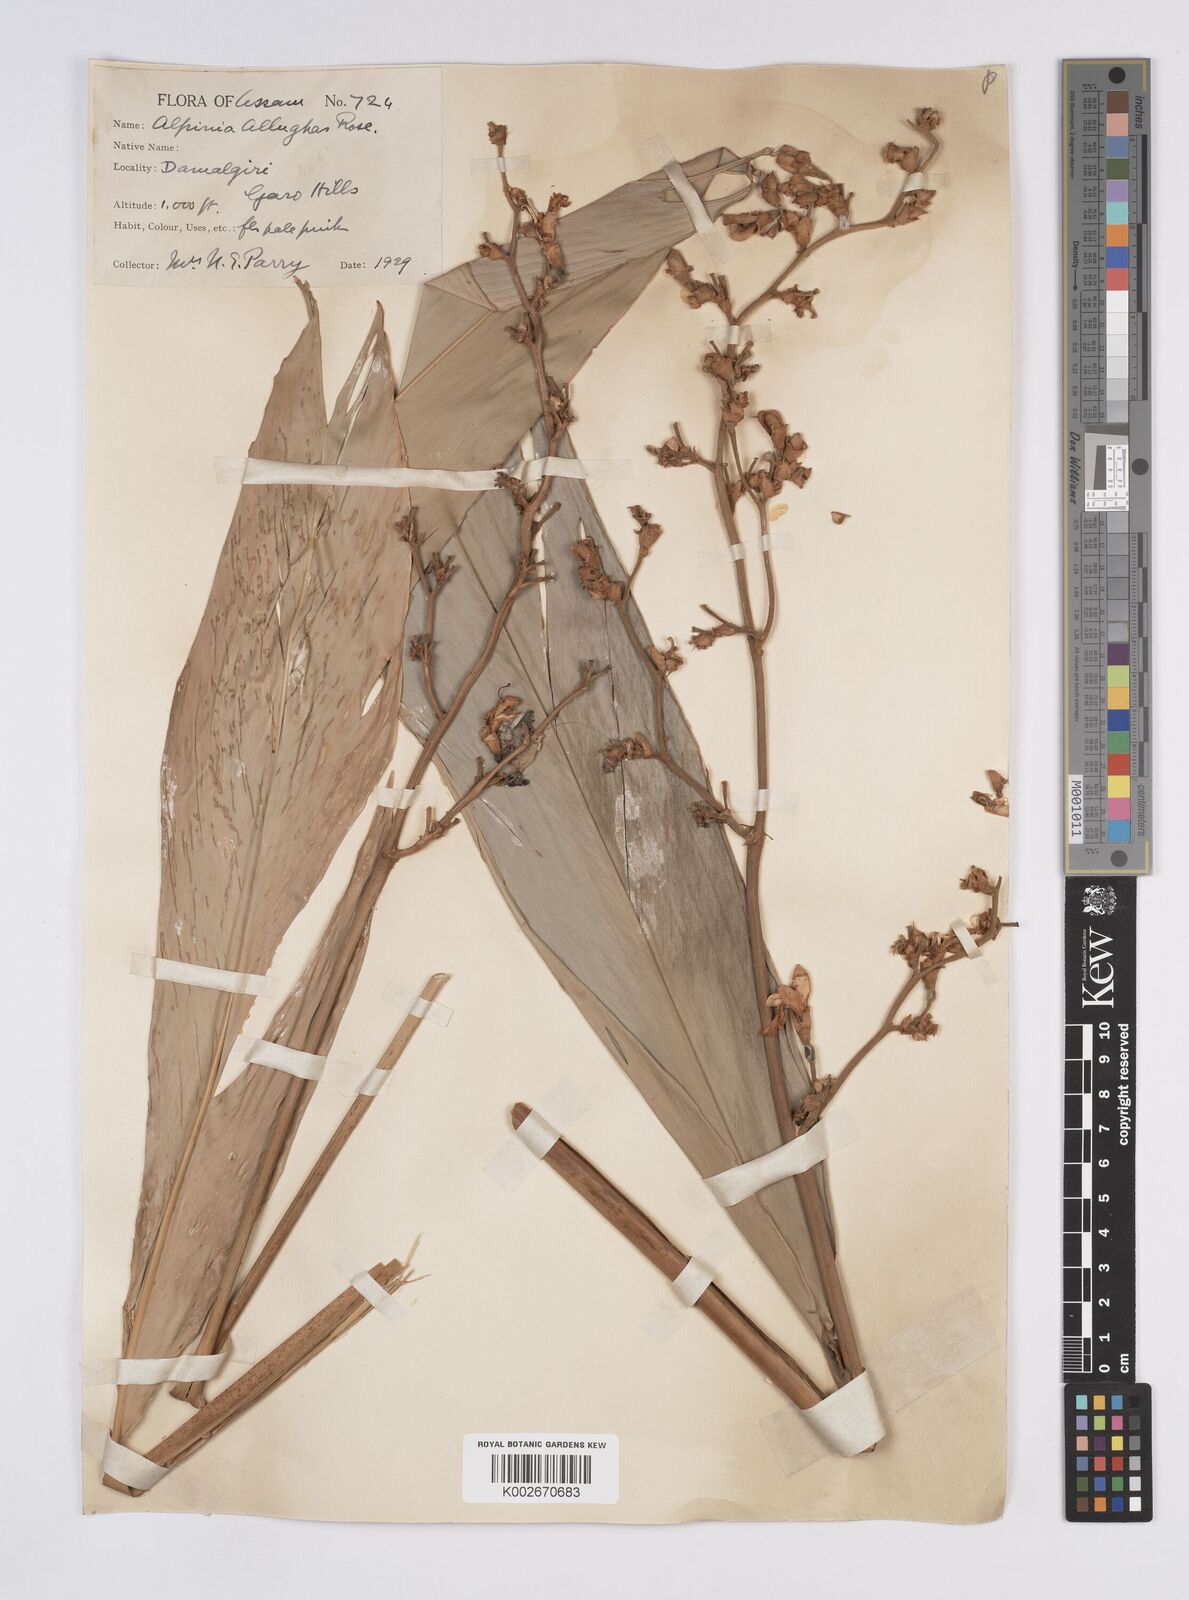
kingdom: Plantae
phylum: Tracheophyta
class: Liliopsida
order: Zingiberales
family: Zingiberaceae
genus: Alpinia
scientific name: Alpinia nigra
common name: Black fruited galanga
